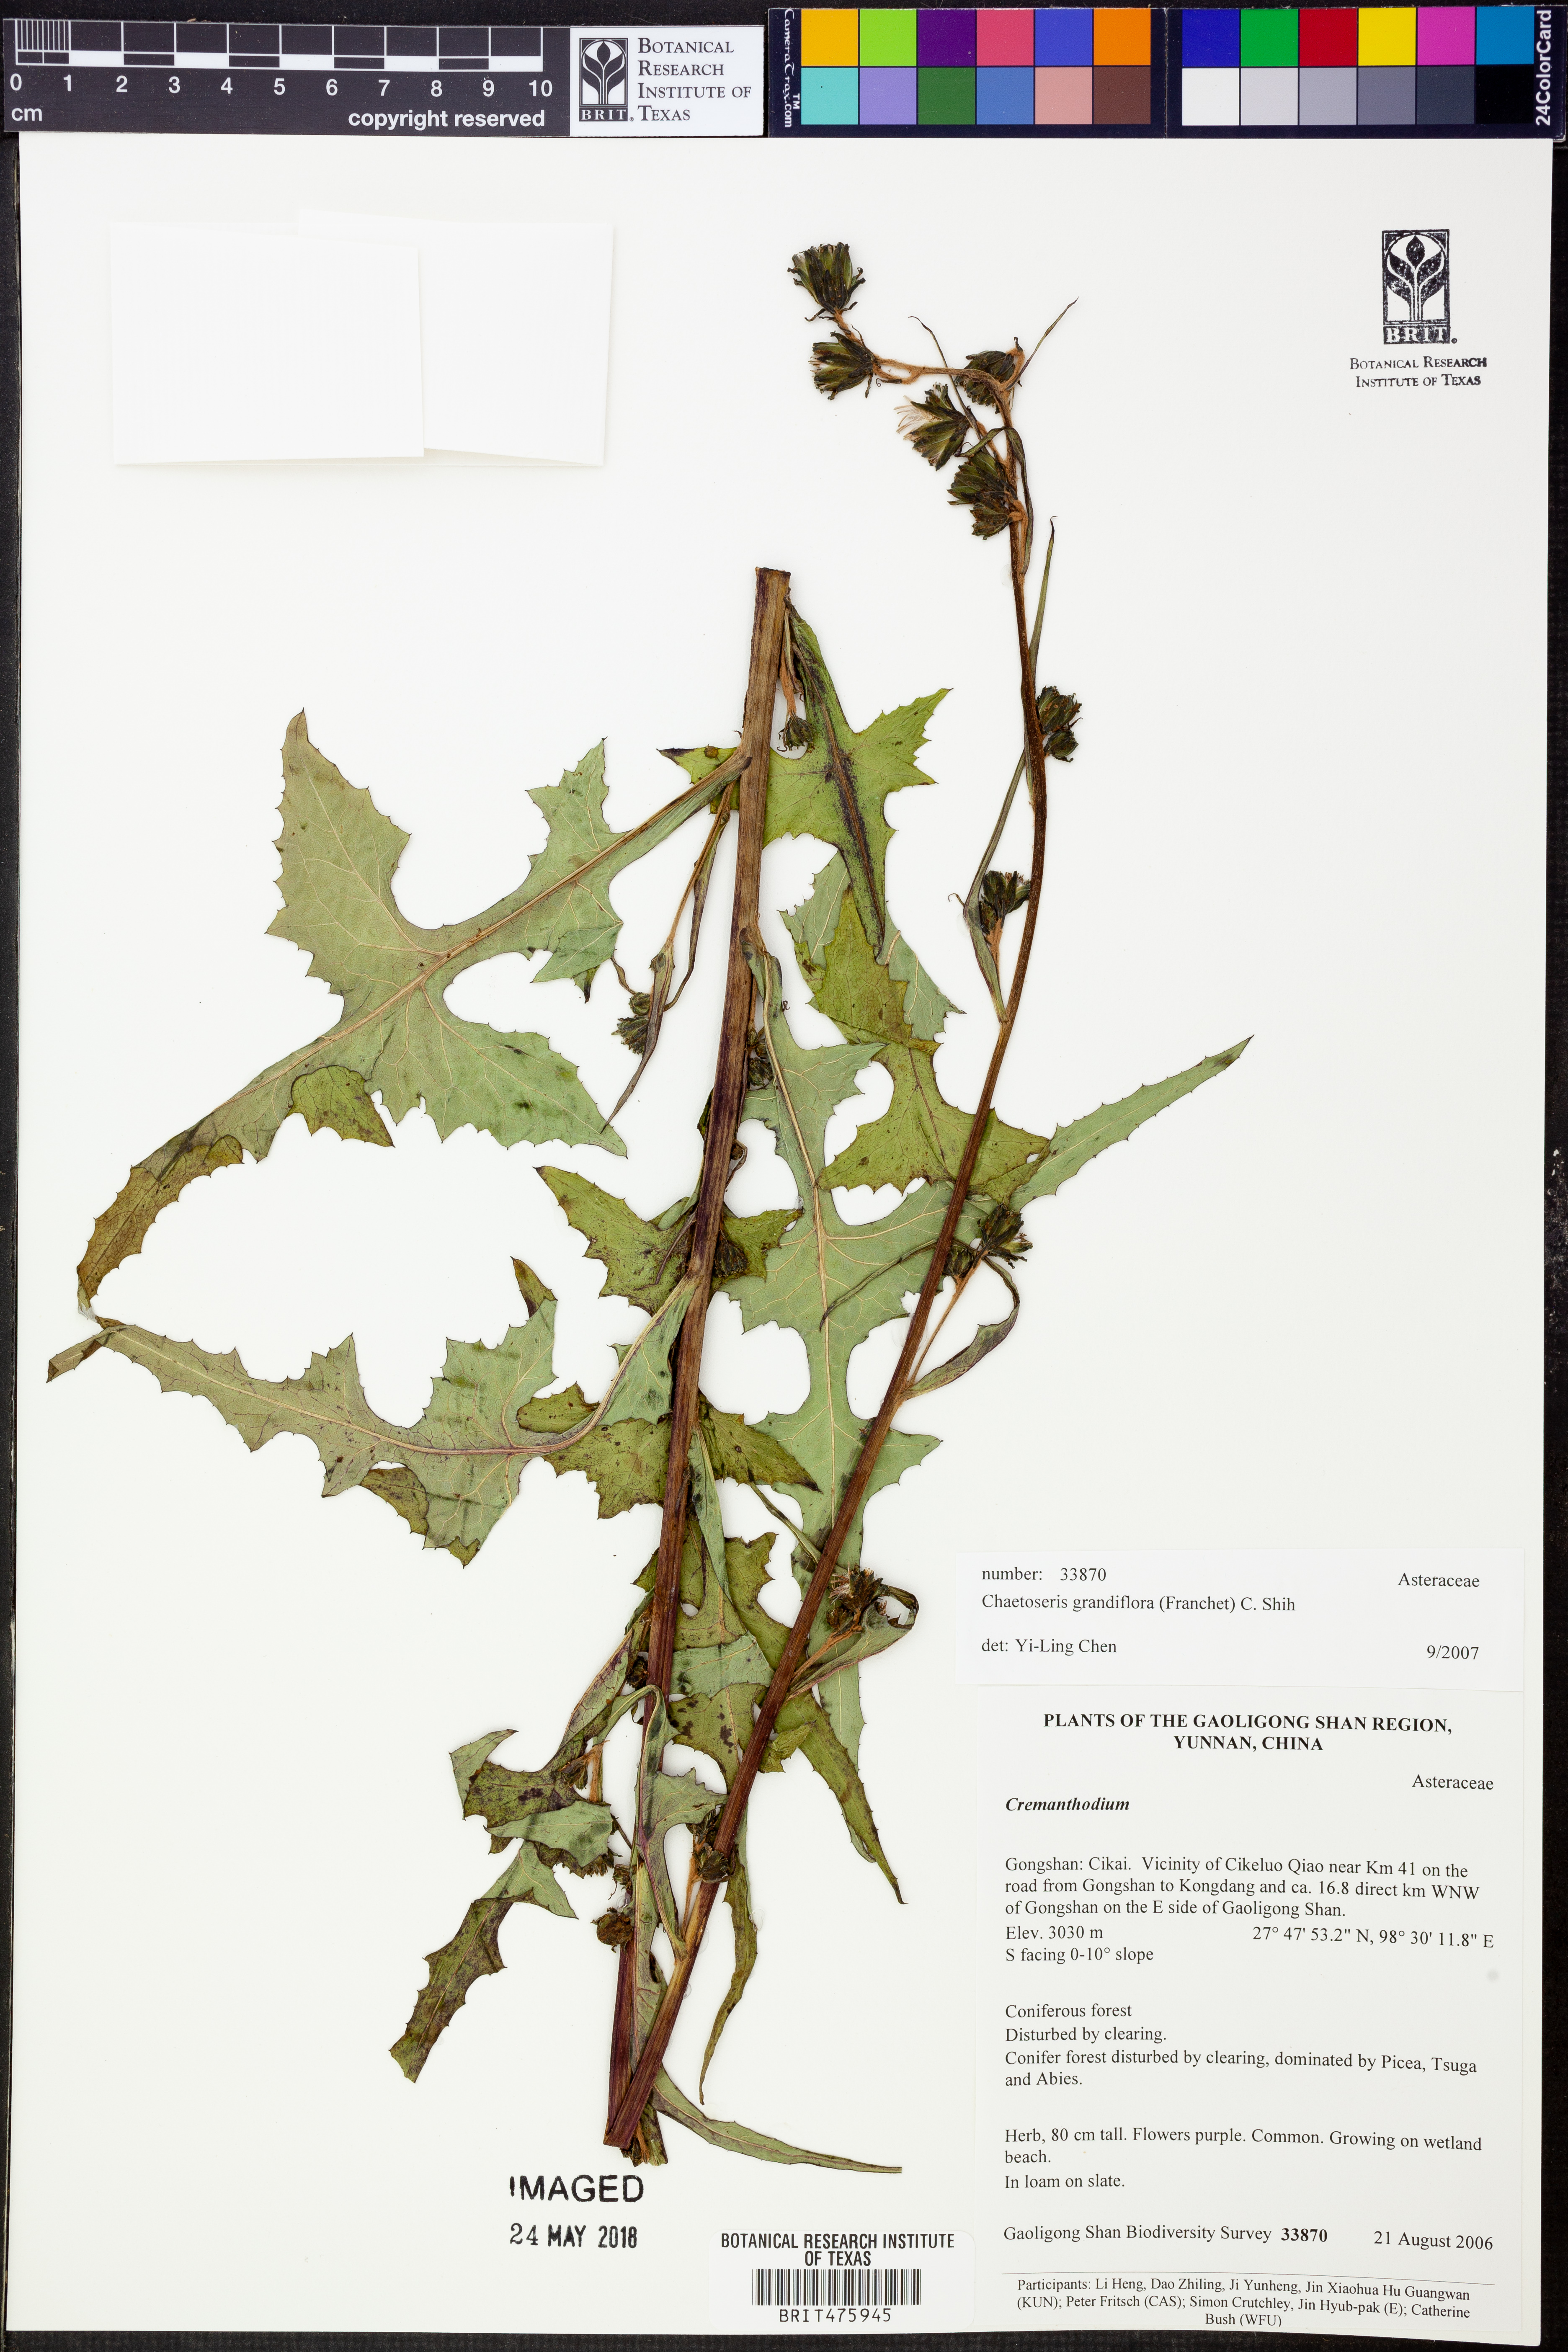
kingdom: Plantae
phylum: Tracheophyta
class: Magnoliopsida
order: Asterales
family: Asteraceae
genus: Melanoseris
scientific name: Melanoseris atropurpurea
